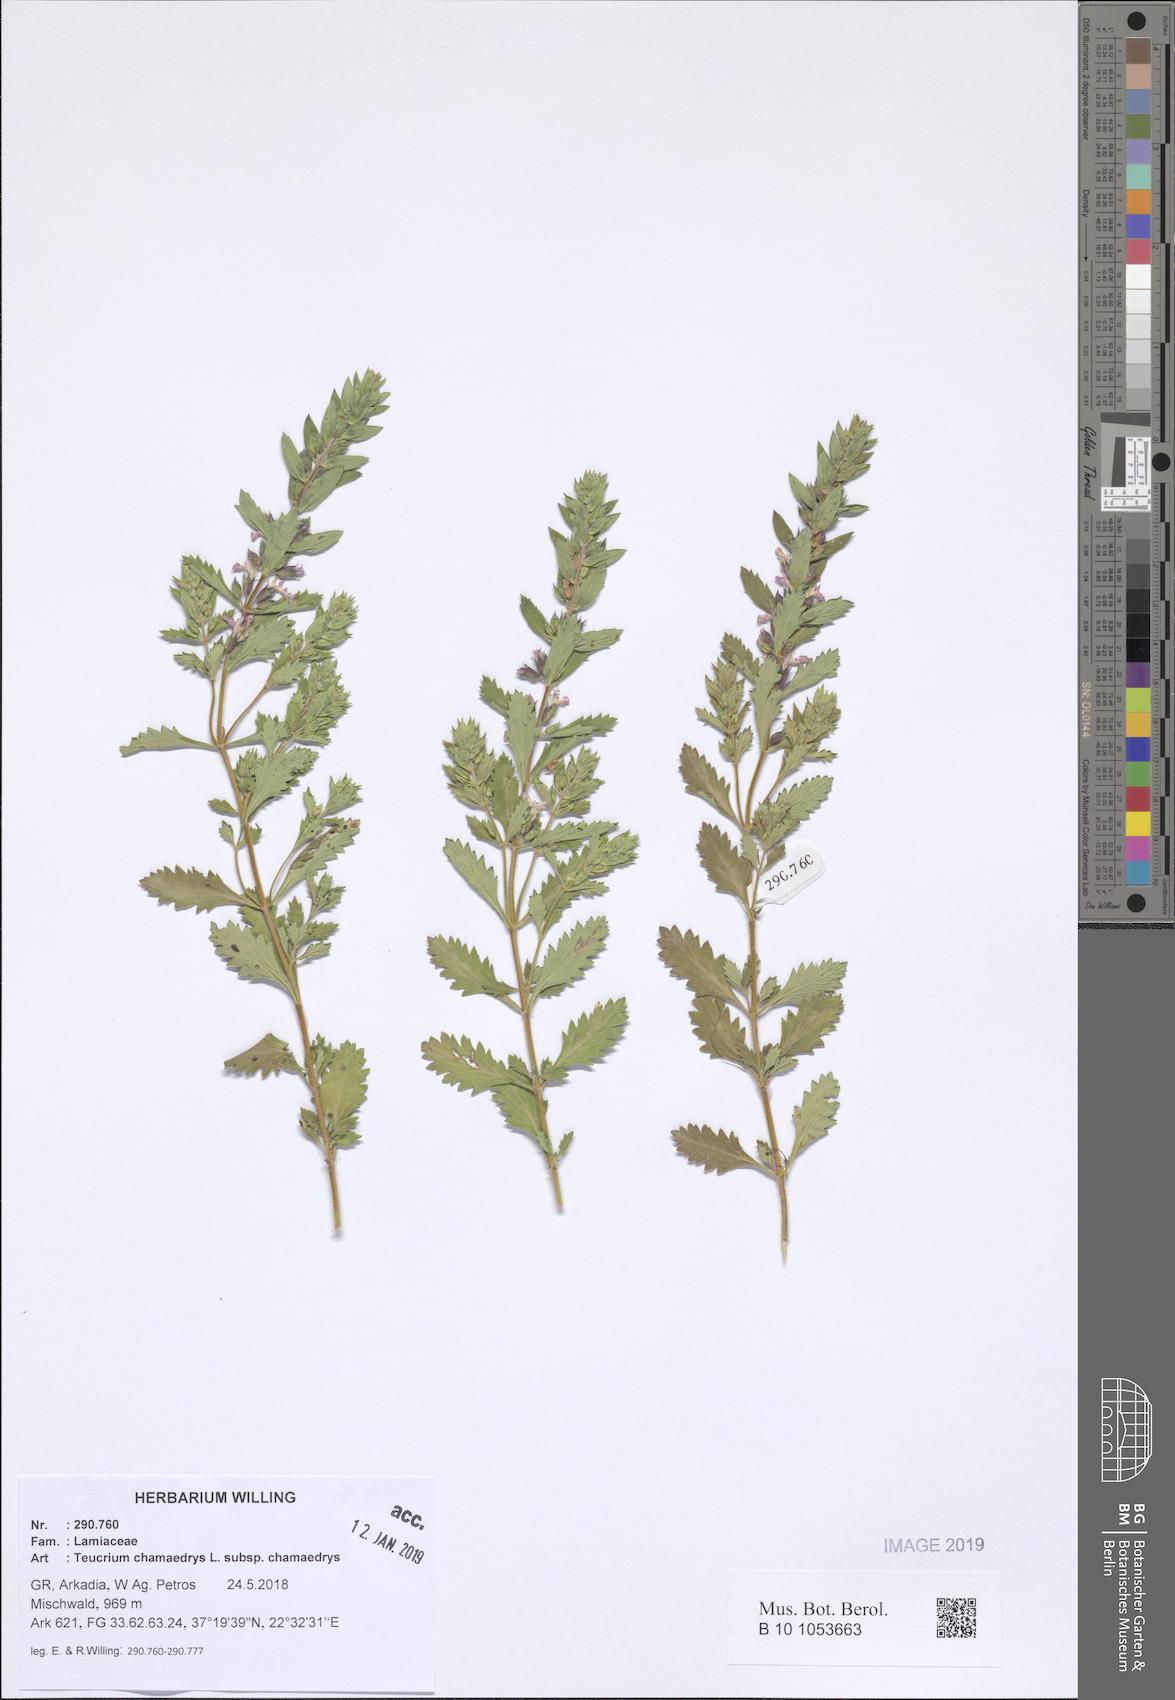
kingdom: Plantae
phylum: Tracheophyta
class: Magnoliopsida
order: Lamiales
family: Lamiaceae
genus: Teucrium
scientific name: Teucrium chamaedrys
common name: Wall germander
